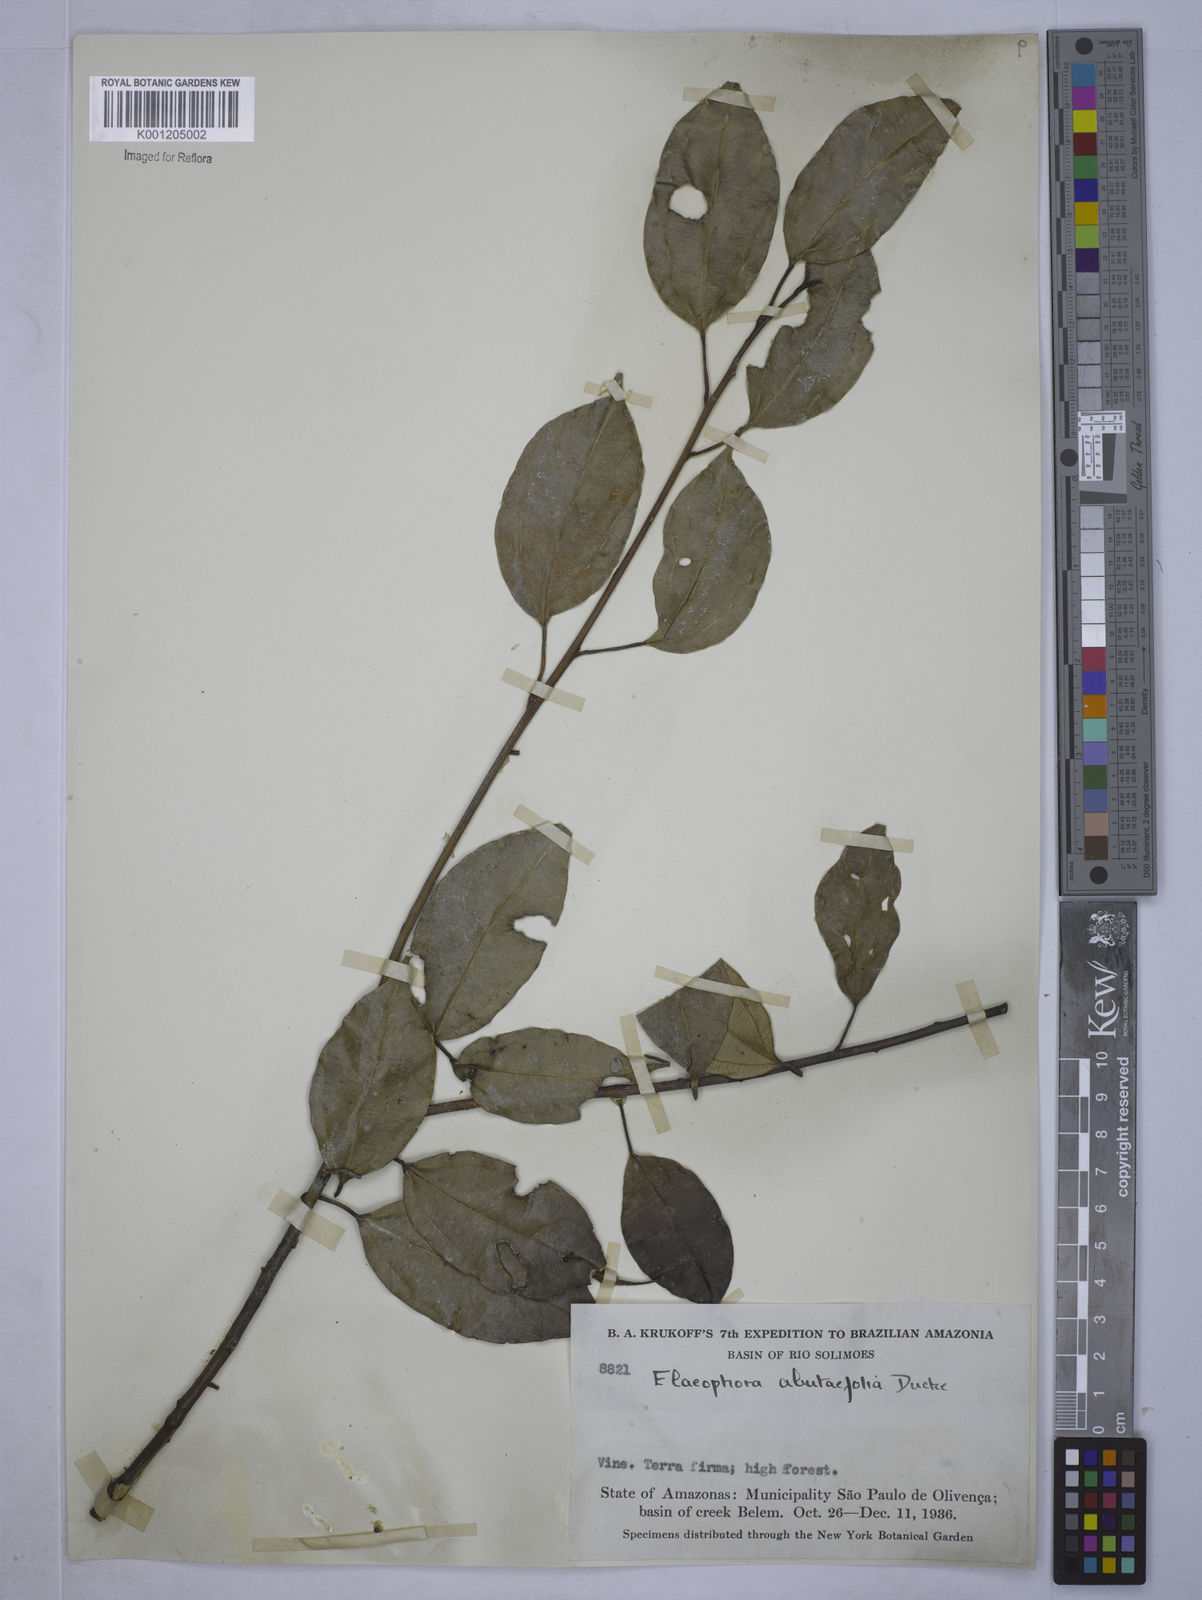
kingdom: Plantae
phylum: Tracheophyta
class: Magnoliopsida
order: Malpighiales
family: Euphorbiaceae
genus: Plukenetia
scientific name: Plukenetia
